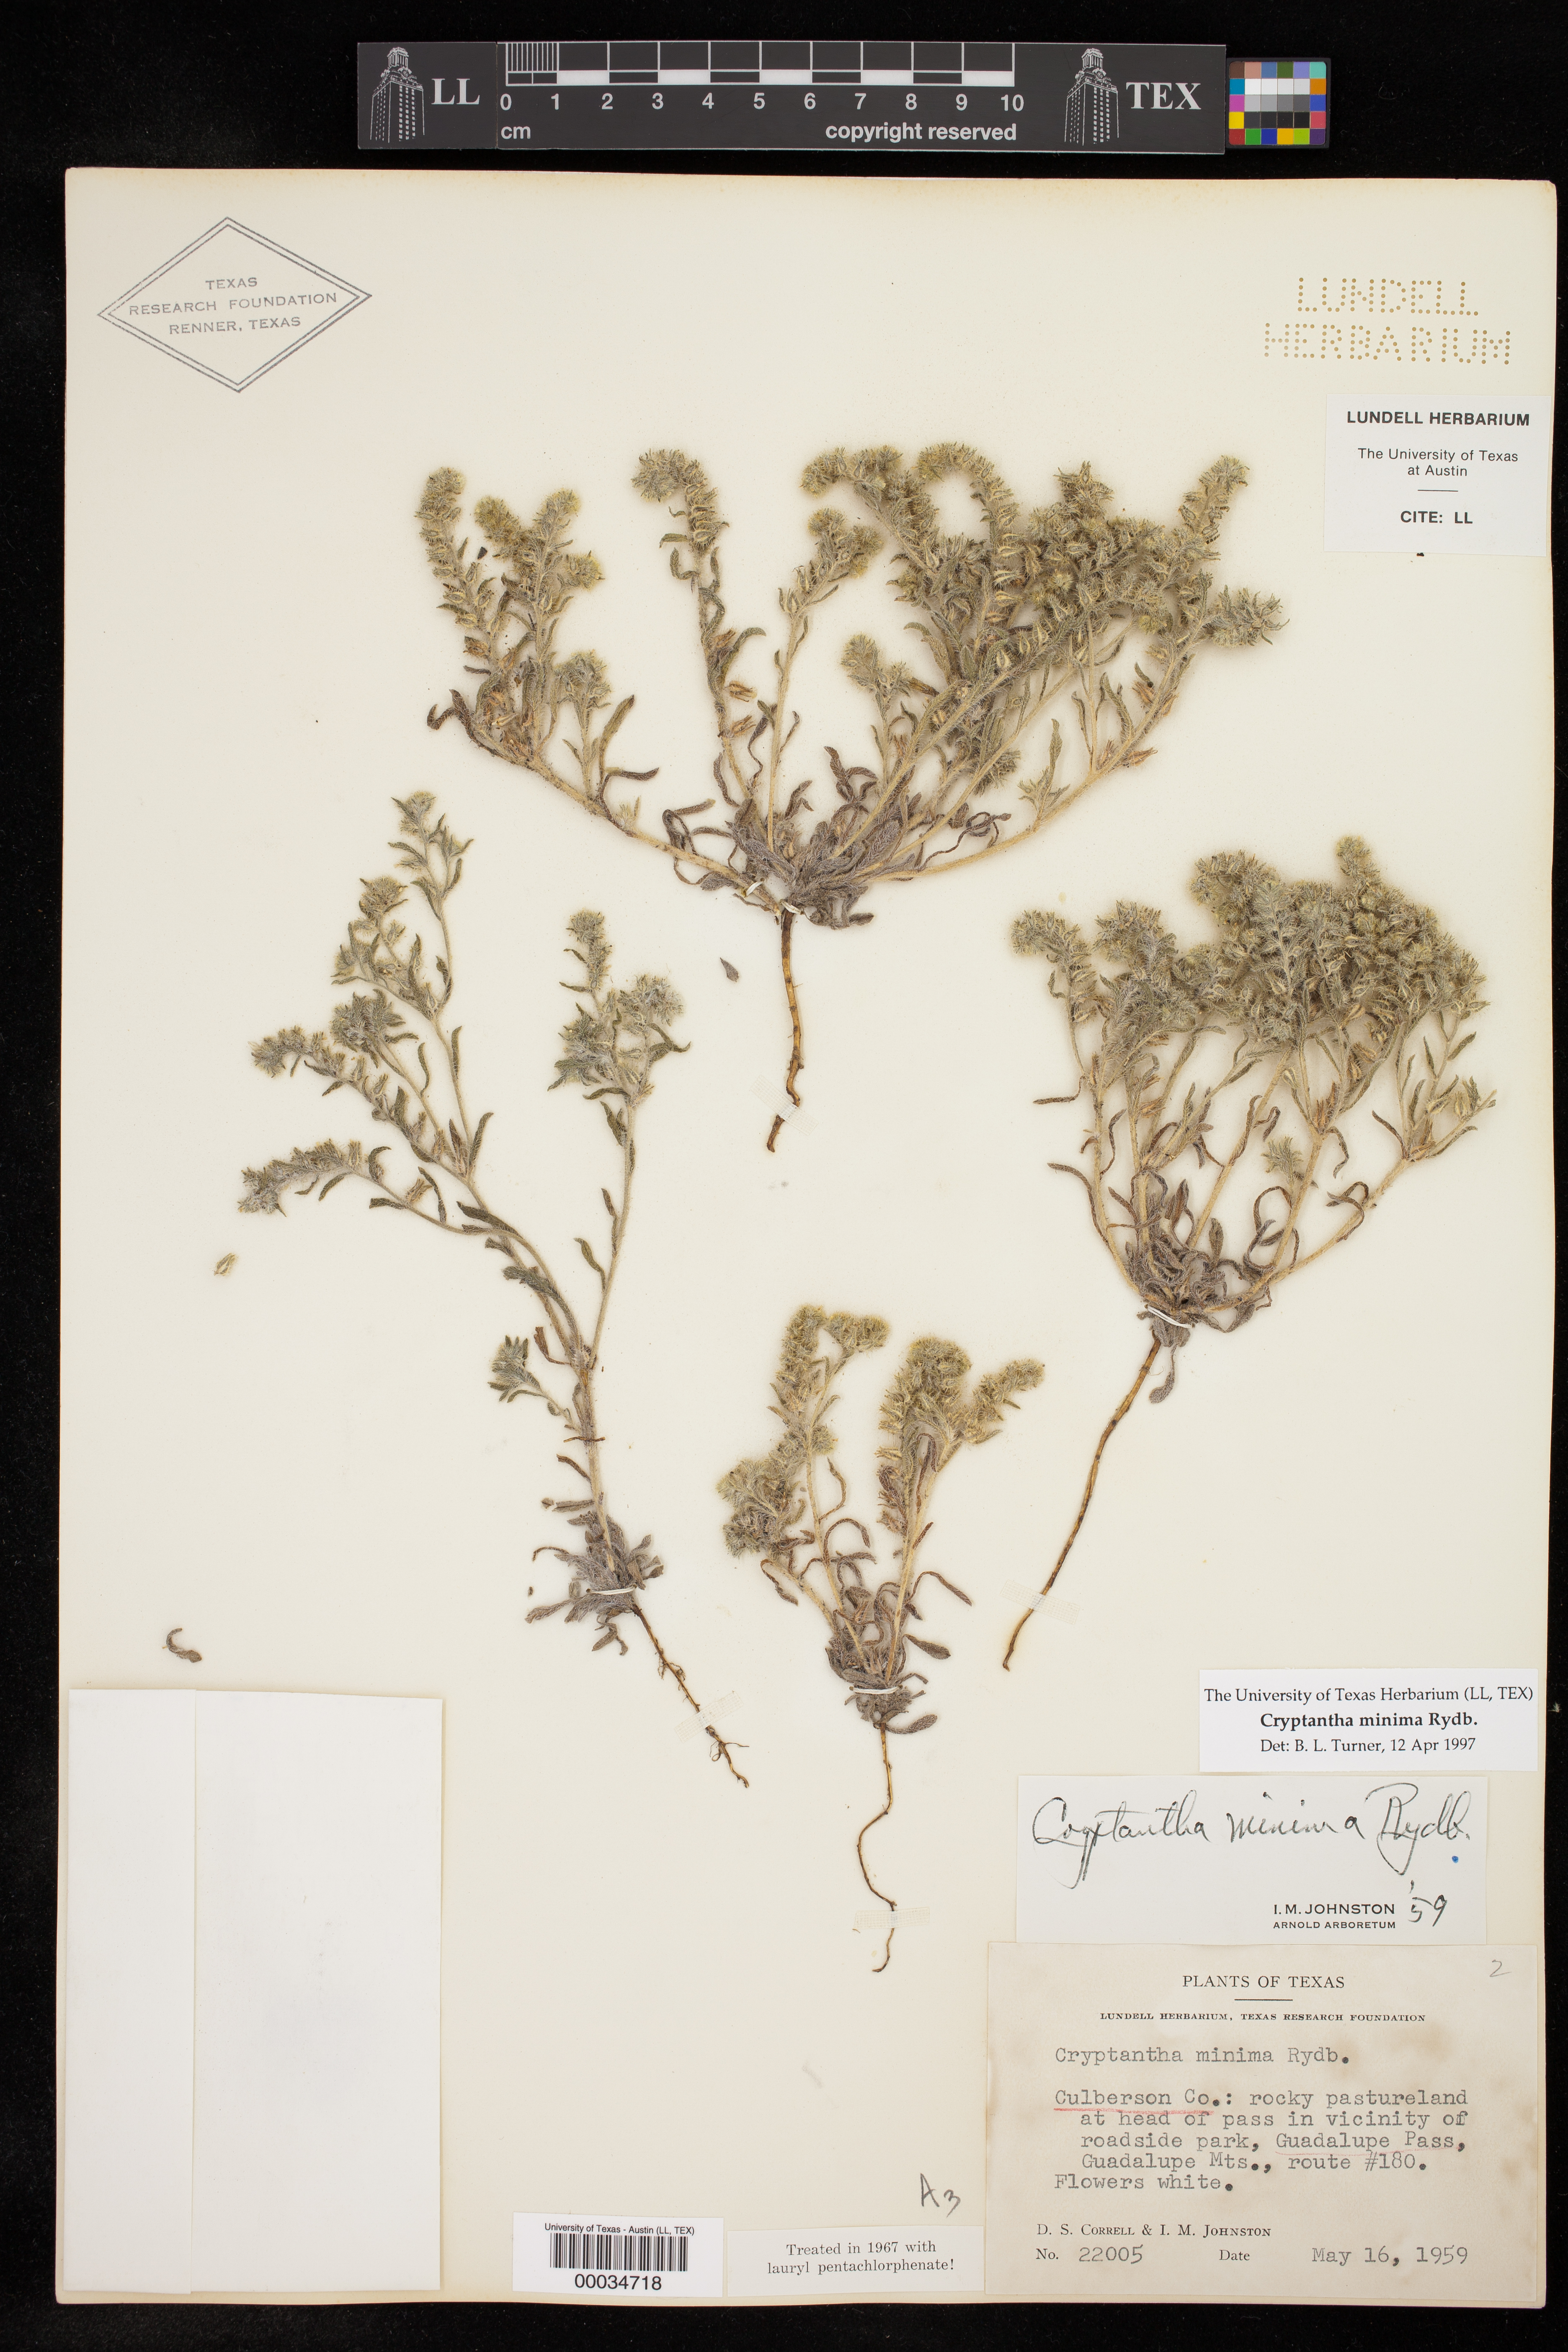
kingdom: Plantae
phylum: Tracheophyta
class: Magnoliopsida
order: Boraginales
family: Boraginaceae
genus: Cryptantha
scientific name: Cryptantha minima
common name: Little cat's-eye
